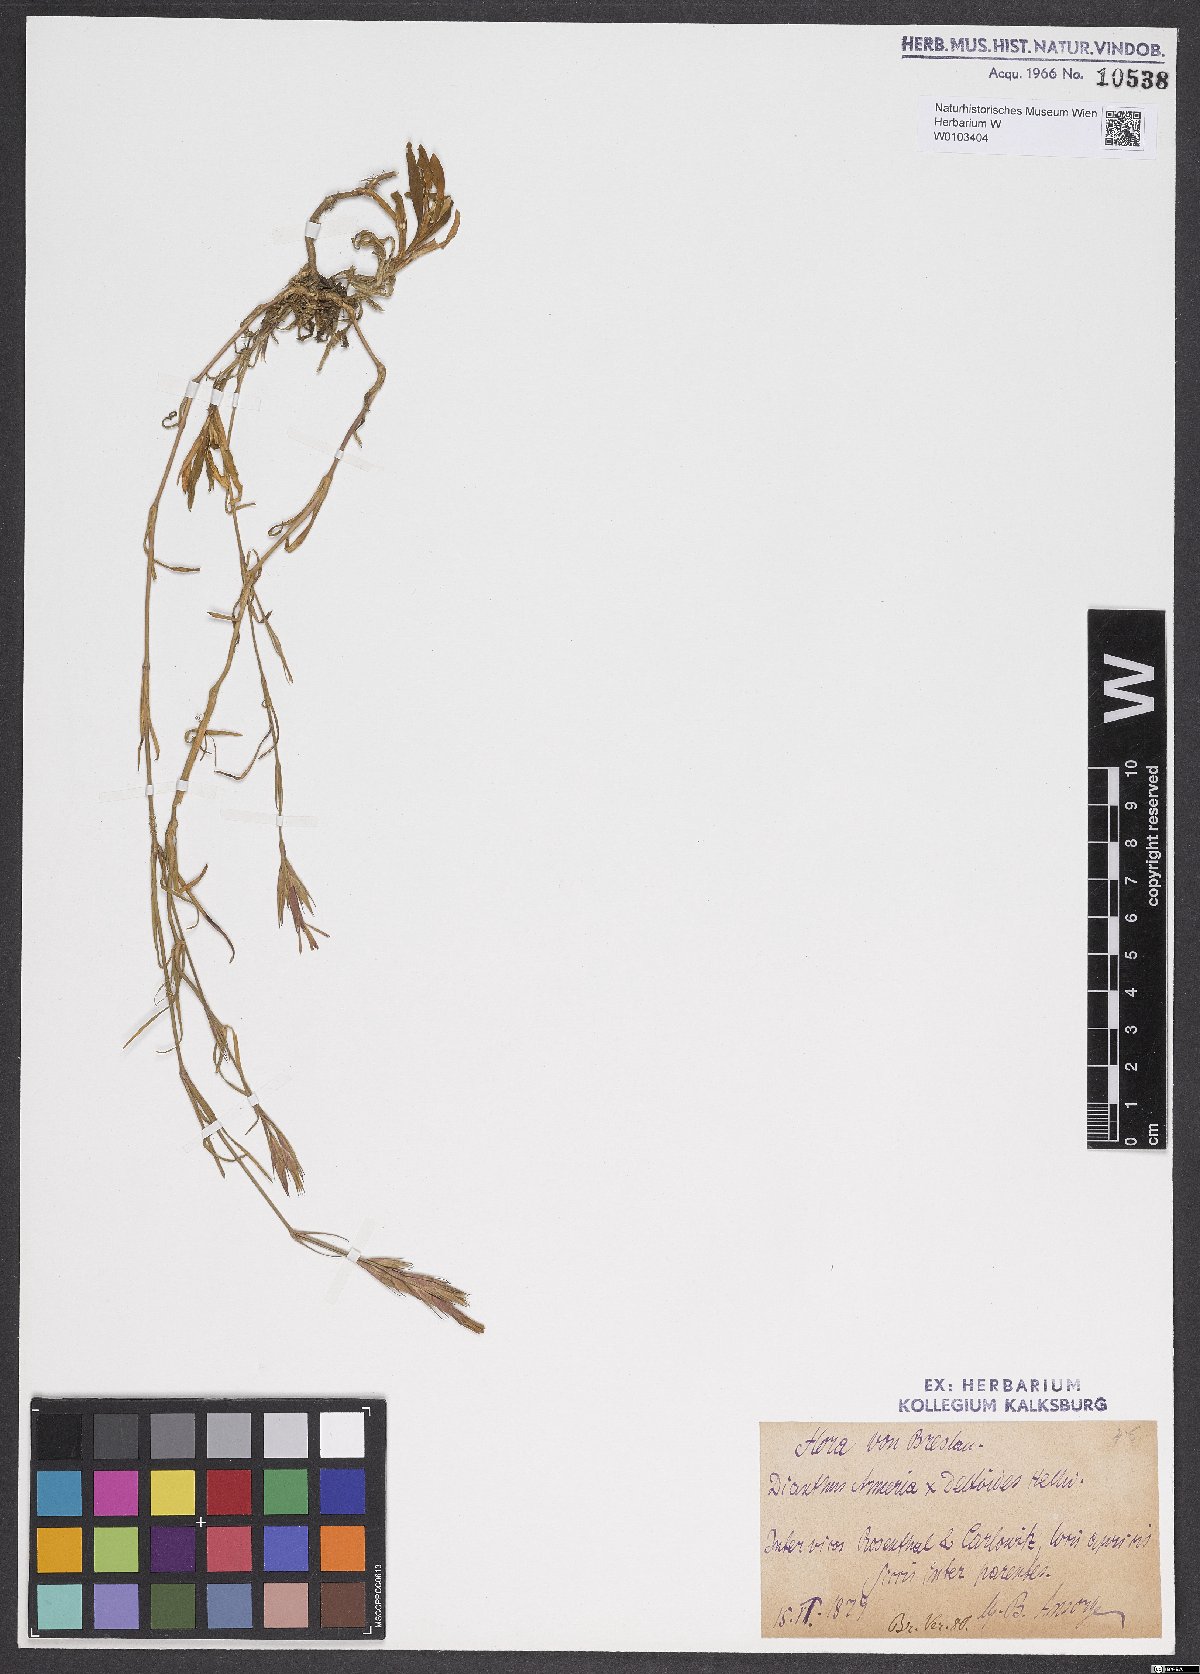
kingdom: Plantae
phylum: Tracheophyta
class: Magnoliopsida
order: Caryophyllales
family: Caryophyllaceae
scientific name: Caryophyllaceae
